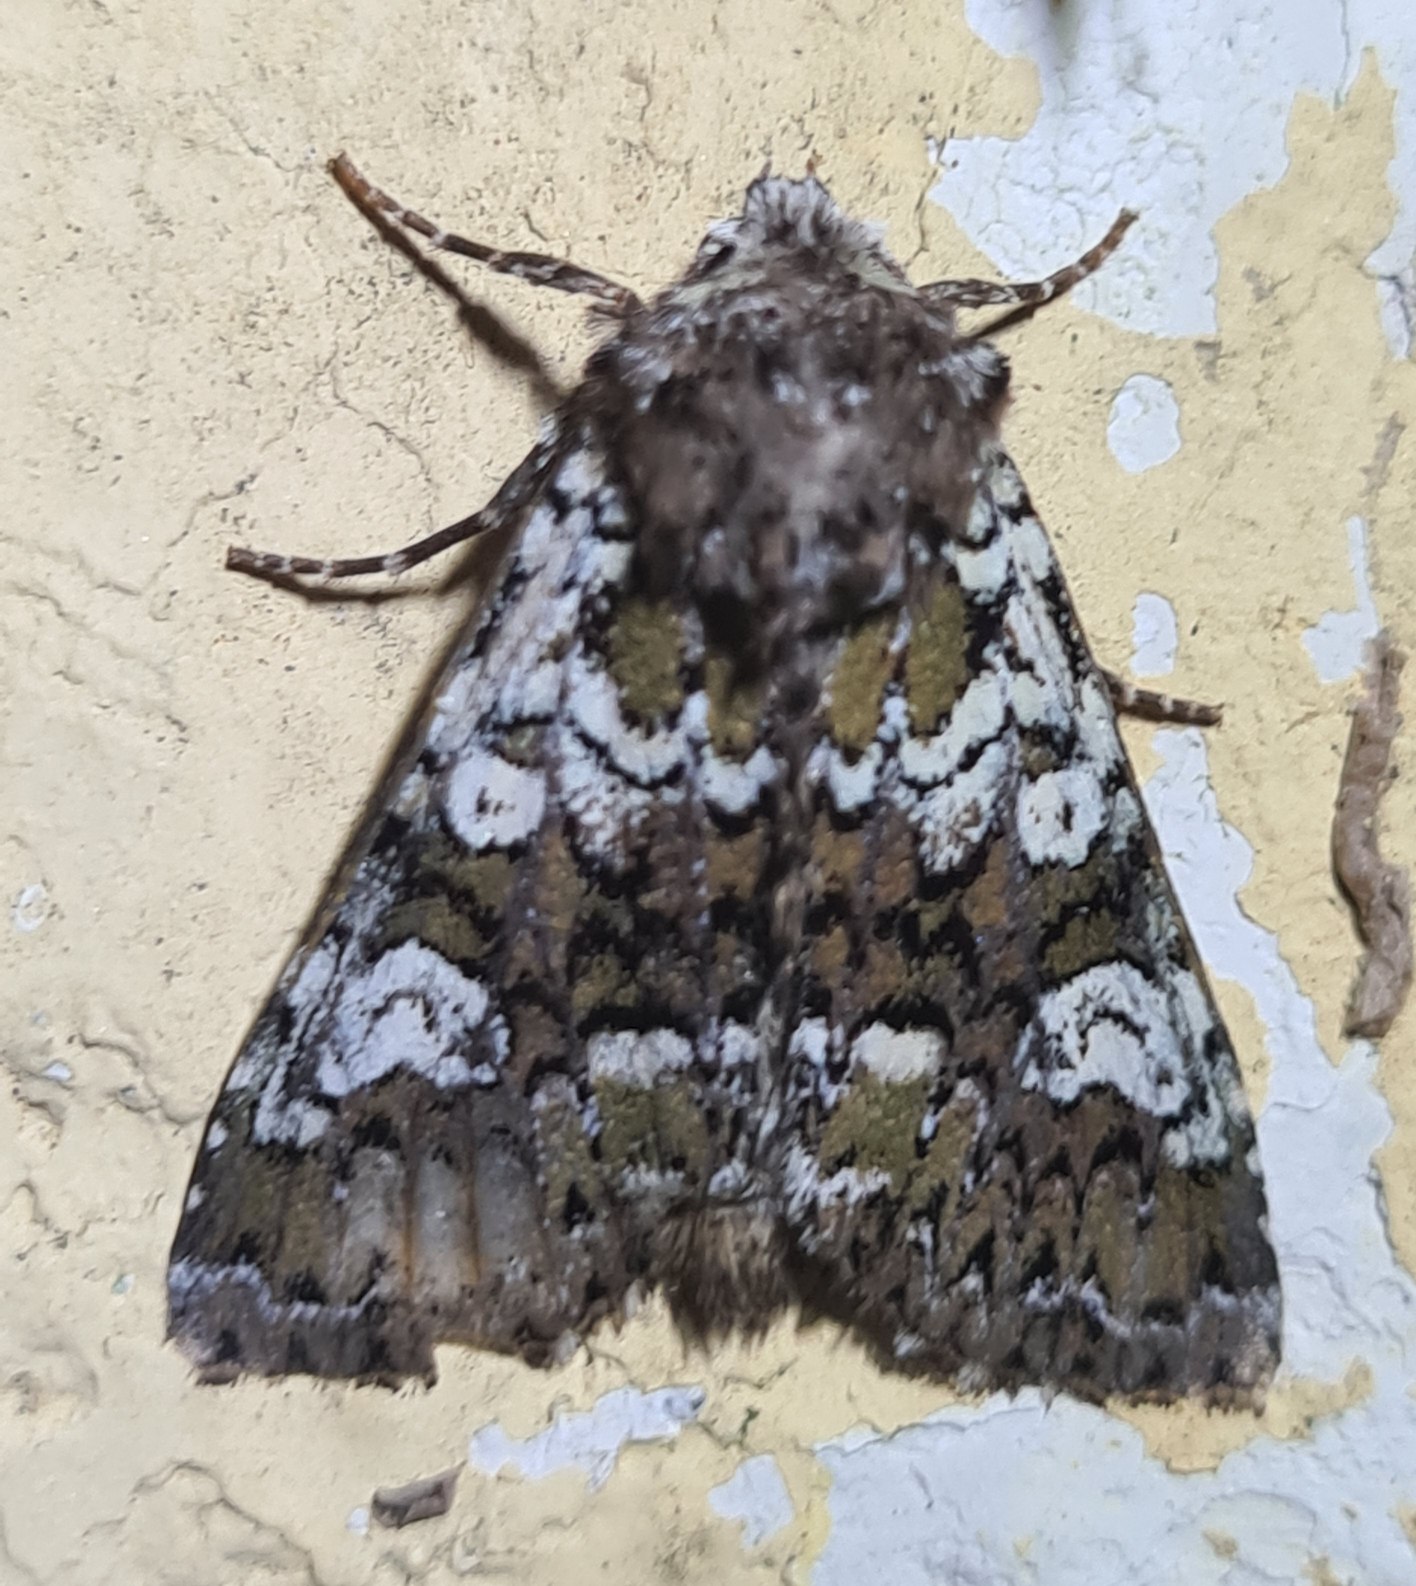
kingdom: Animalia
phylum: Arthropoda
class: Insecta
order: Lepidoptera
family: Noctuidae
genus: Crypsedra
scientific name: Crypsedra gemmea
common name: Smykke-stængelugle
